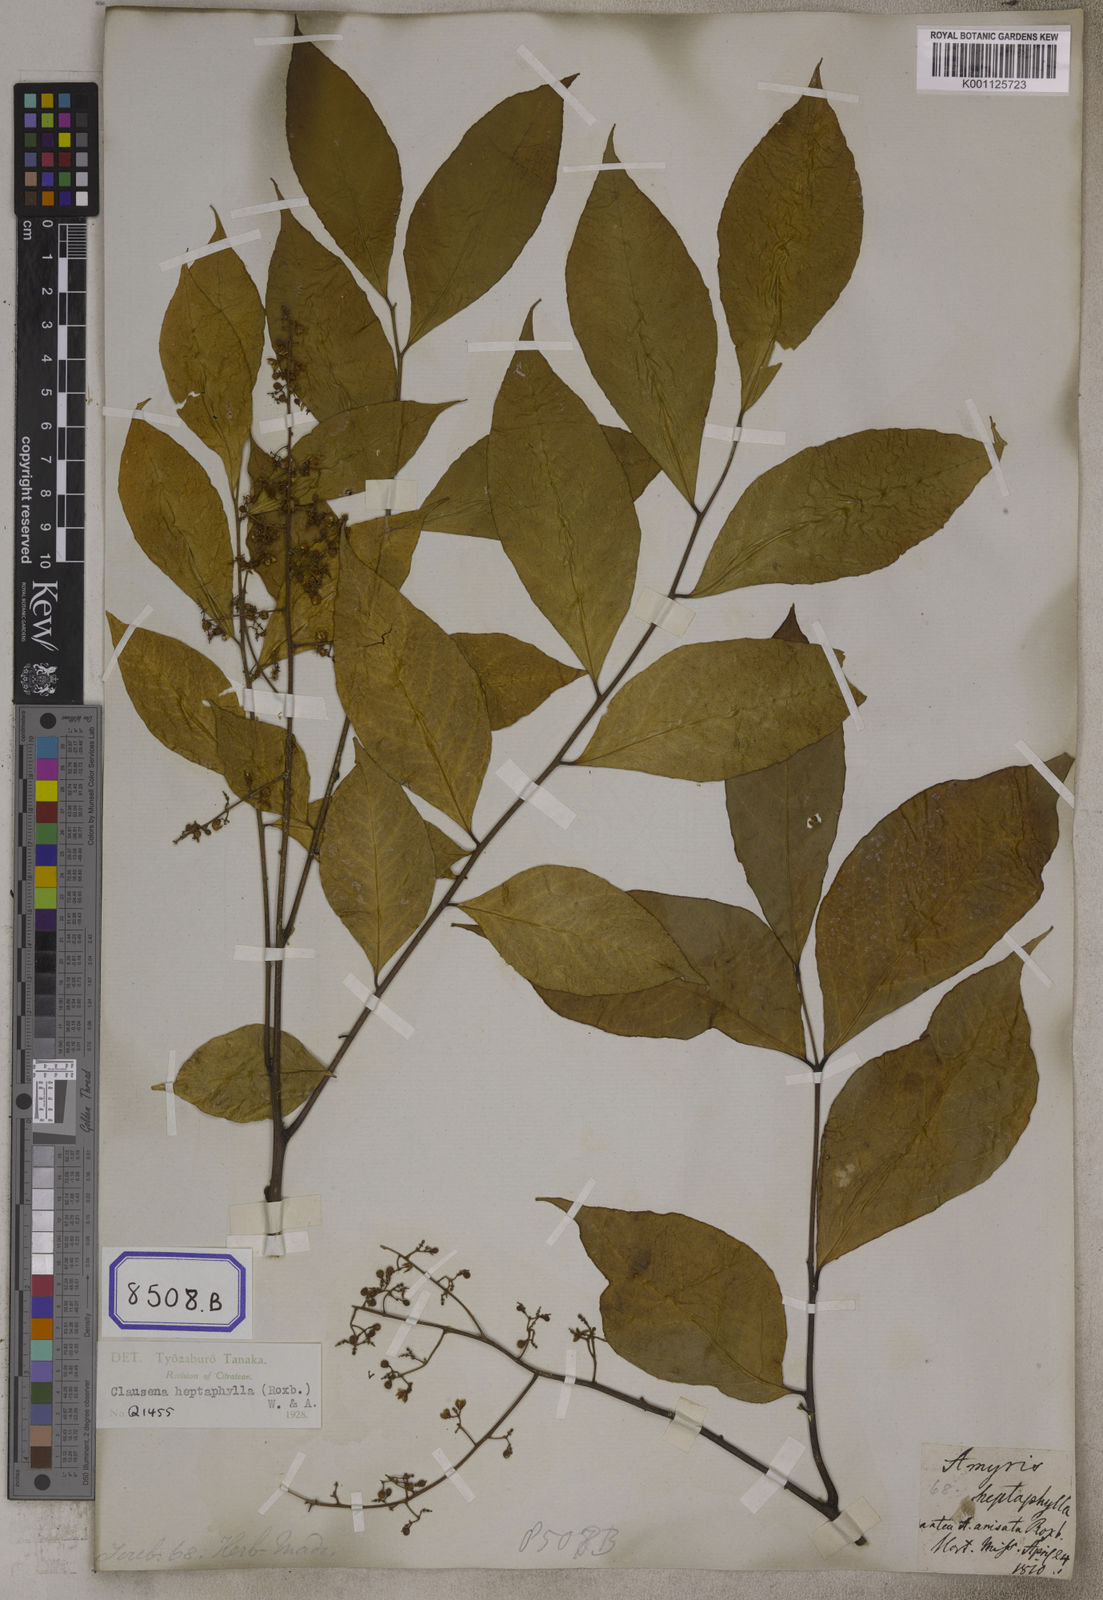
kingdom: Plantae
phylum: Tracheophyta
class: Magnoliopsida
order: Sapindales
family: Rutaceae
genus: Clausena
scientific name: Clausena heptaphylla
